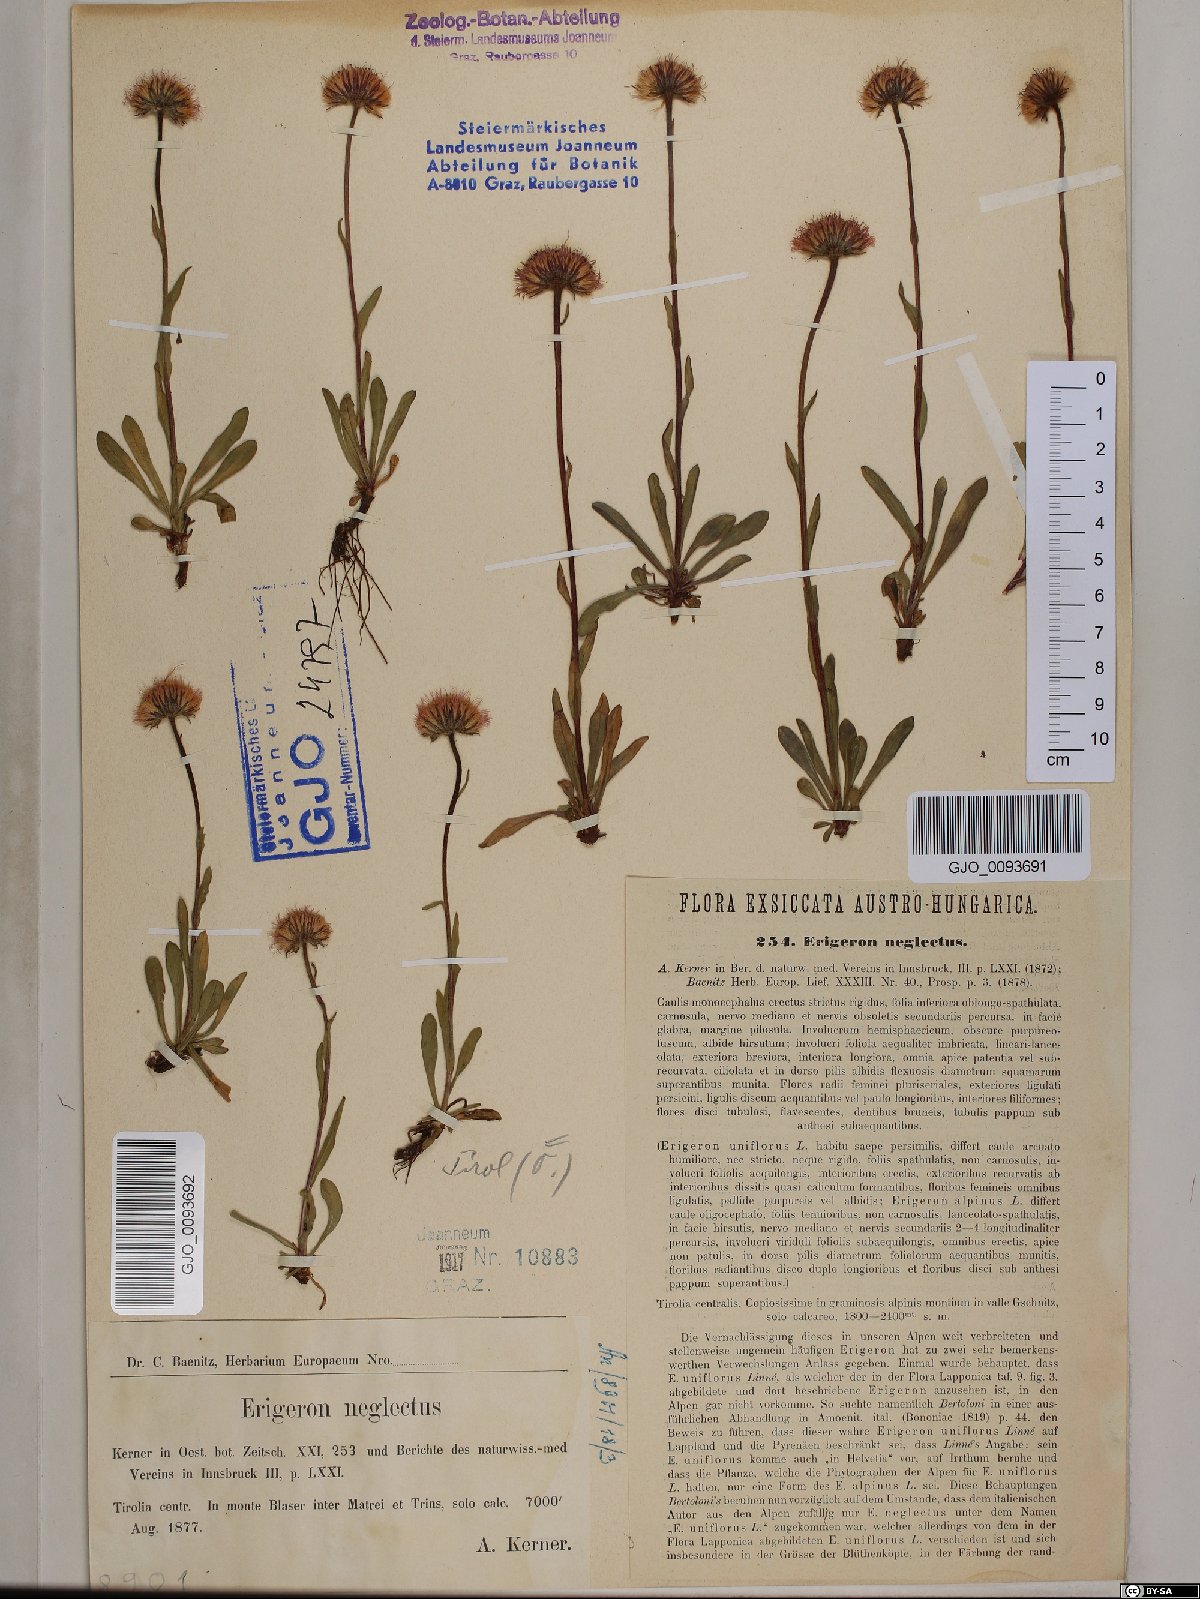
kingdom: Plantae
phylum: Tracheophyta
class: Magnoliopsida
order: Asterales
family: Asteraceae
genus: Erigeron
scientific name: Erigeron neglectus
